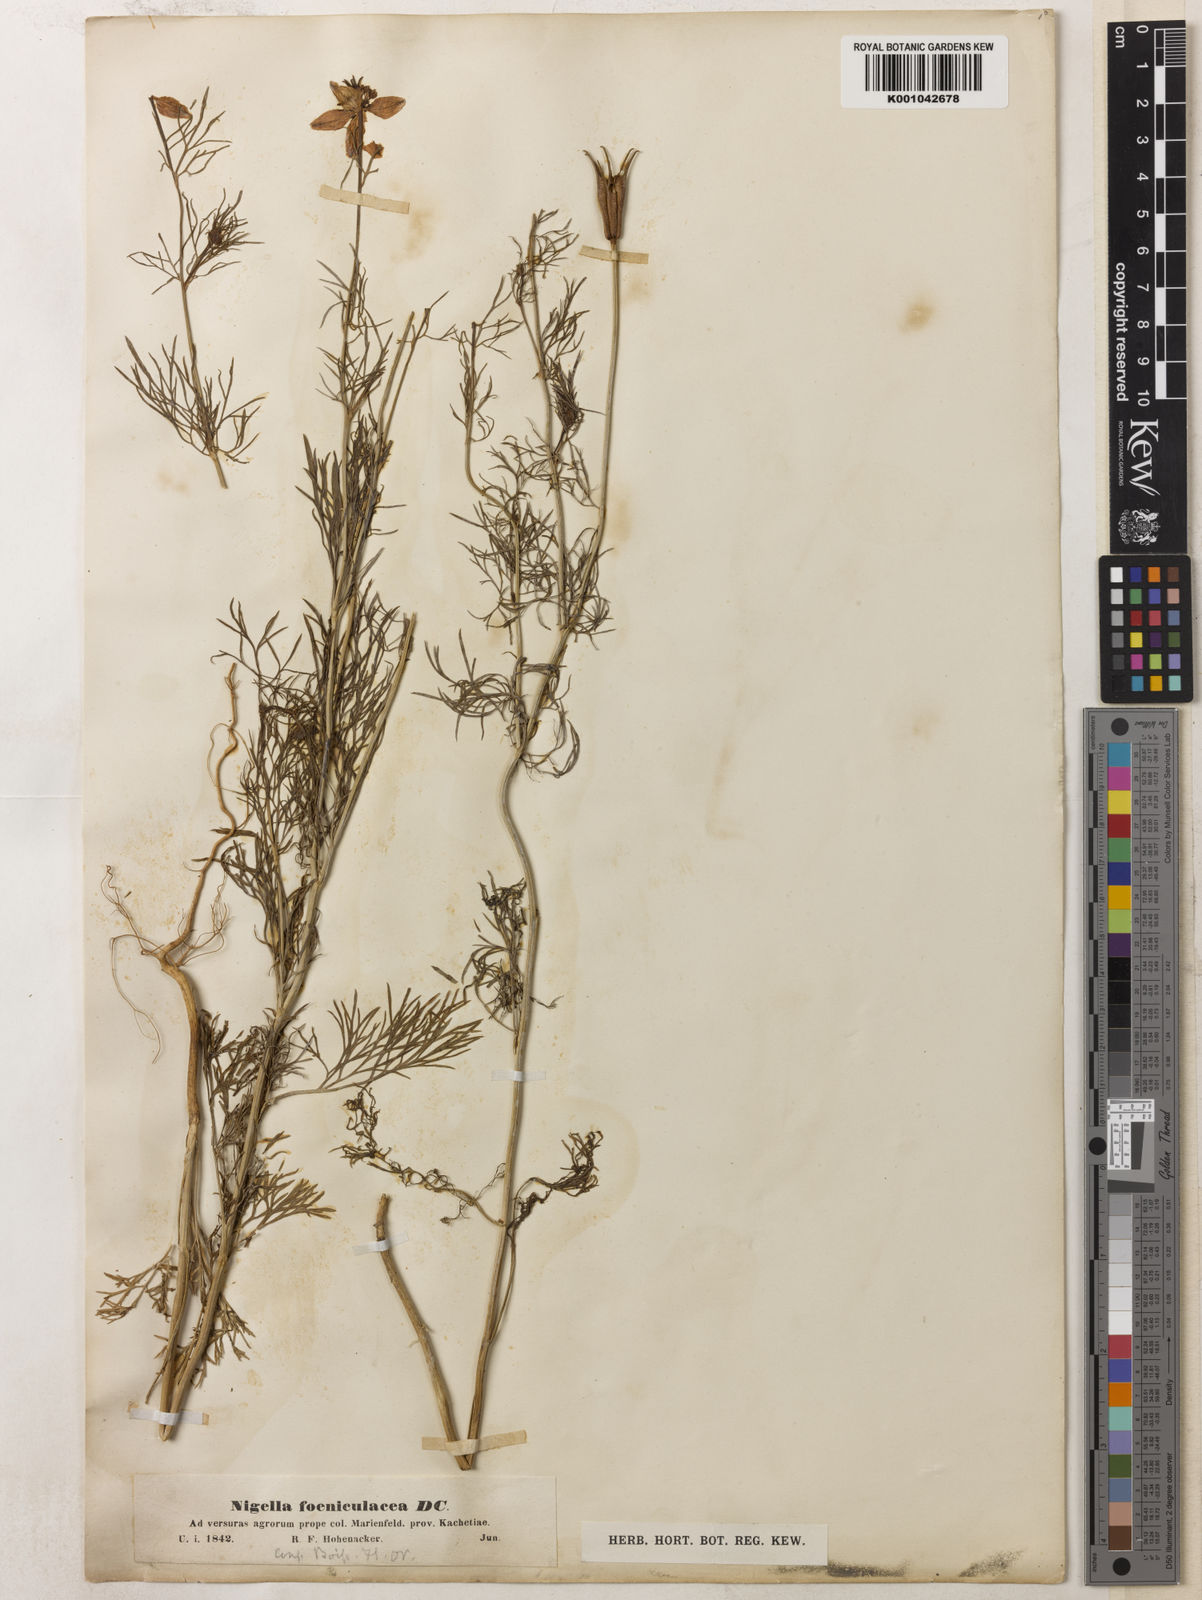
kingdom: Plantae
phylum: Tracheophyta
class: Magnoliopsida
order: Ranunculales
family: Ranunculaceae
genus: Nigella
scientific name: Nigella arvensis
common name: Wild fennel-flower
